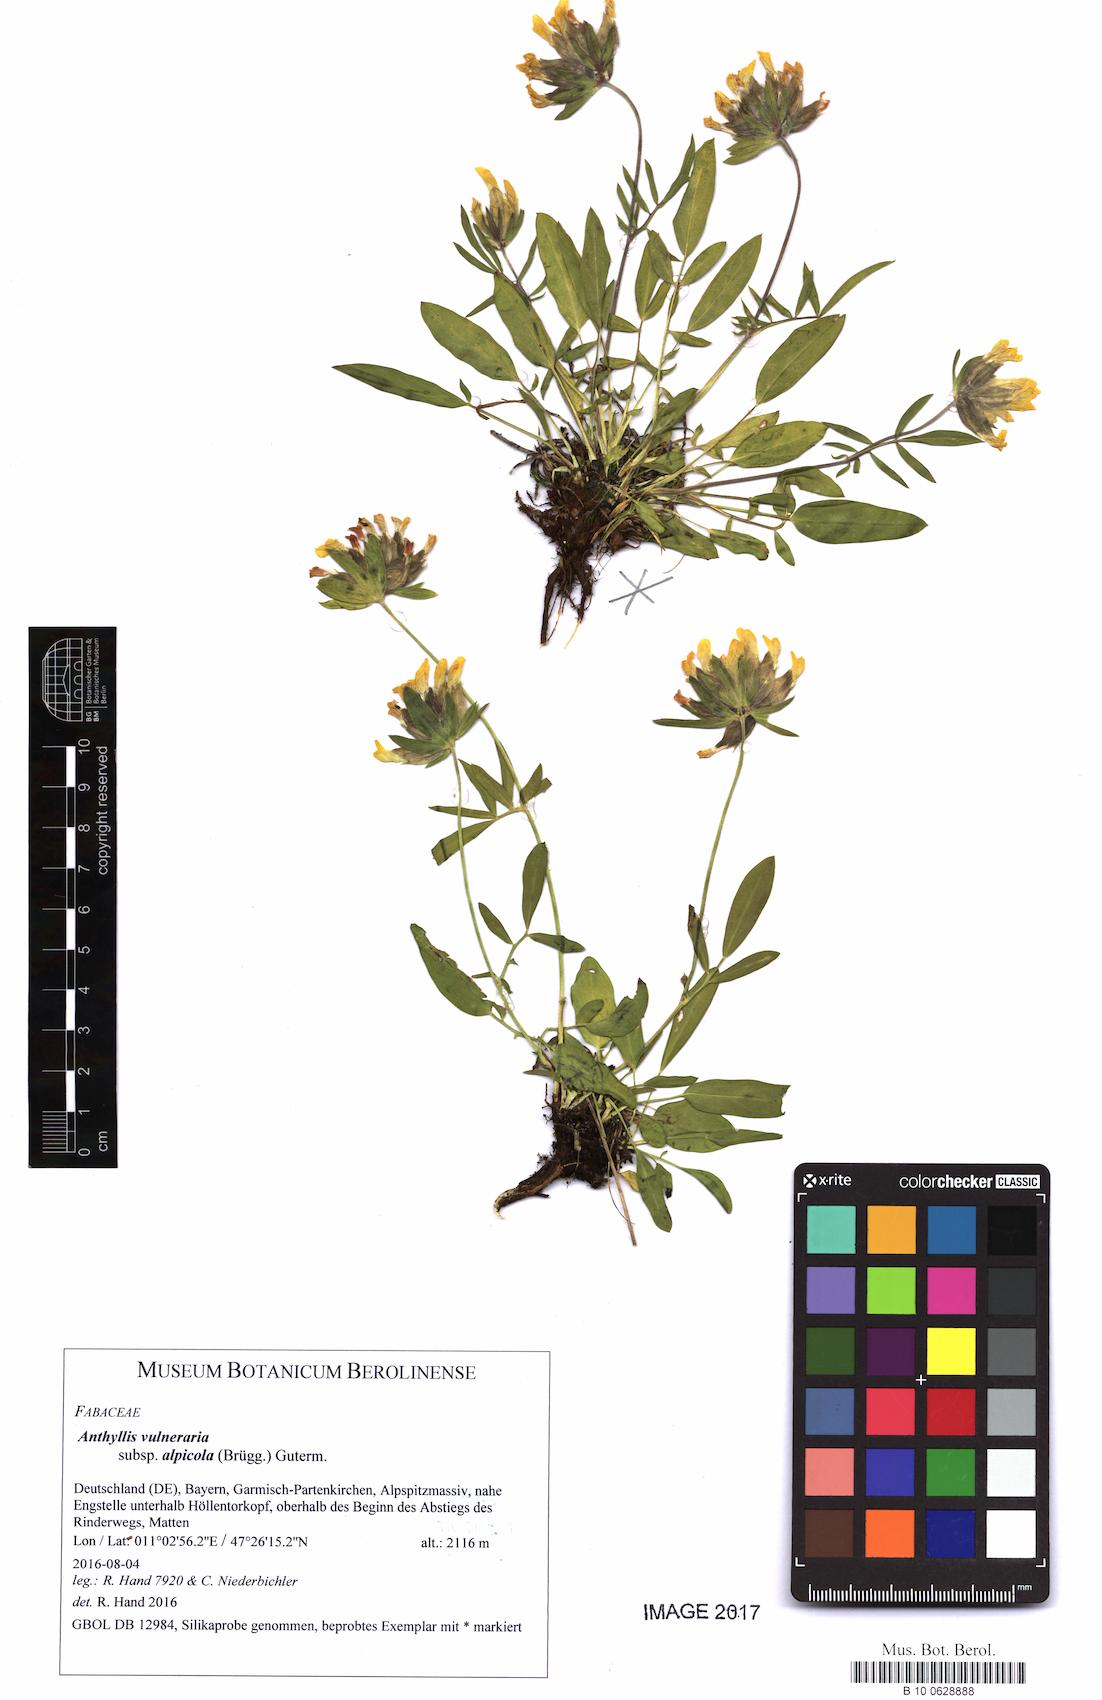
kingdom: Plantae
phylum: Tracheophyta
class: Magnoliopsida
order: Fabales
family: Fabaceae
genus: Anthyllis
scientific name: Anthyllis vulneraria
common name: Kidney vetch
